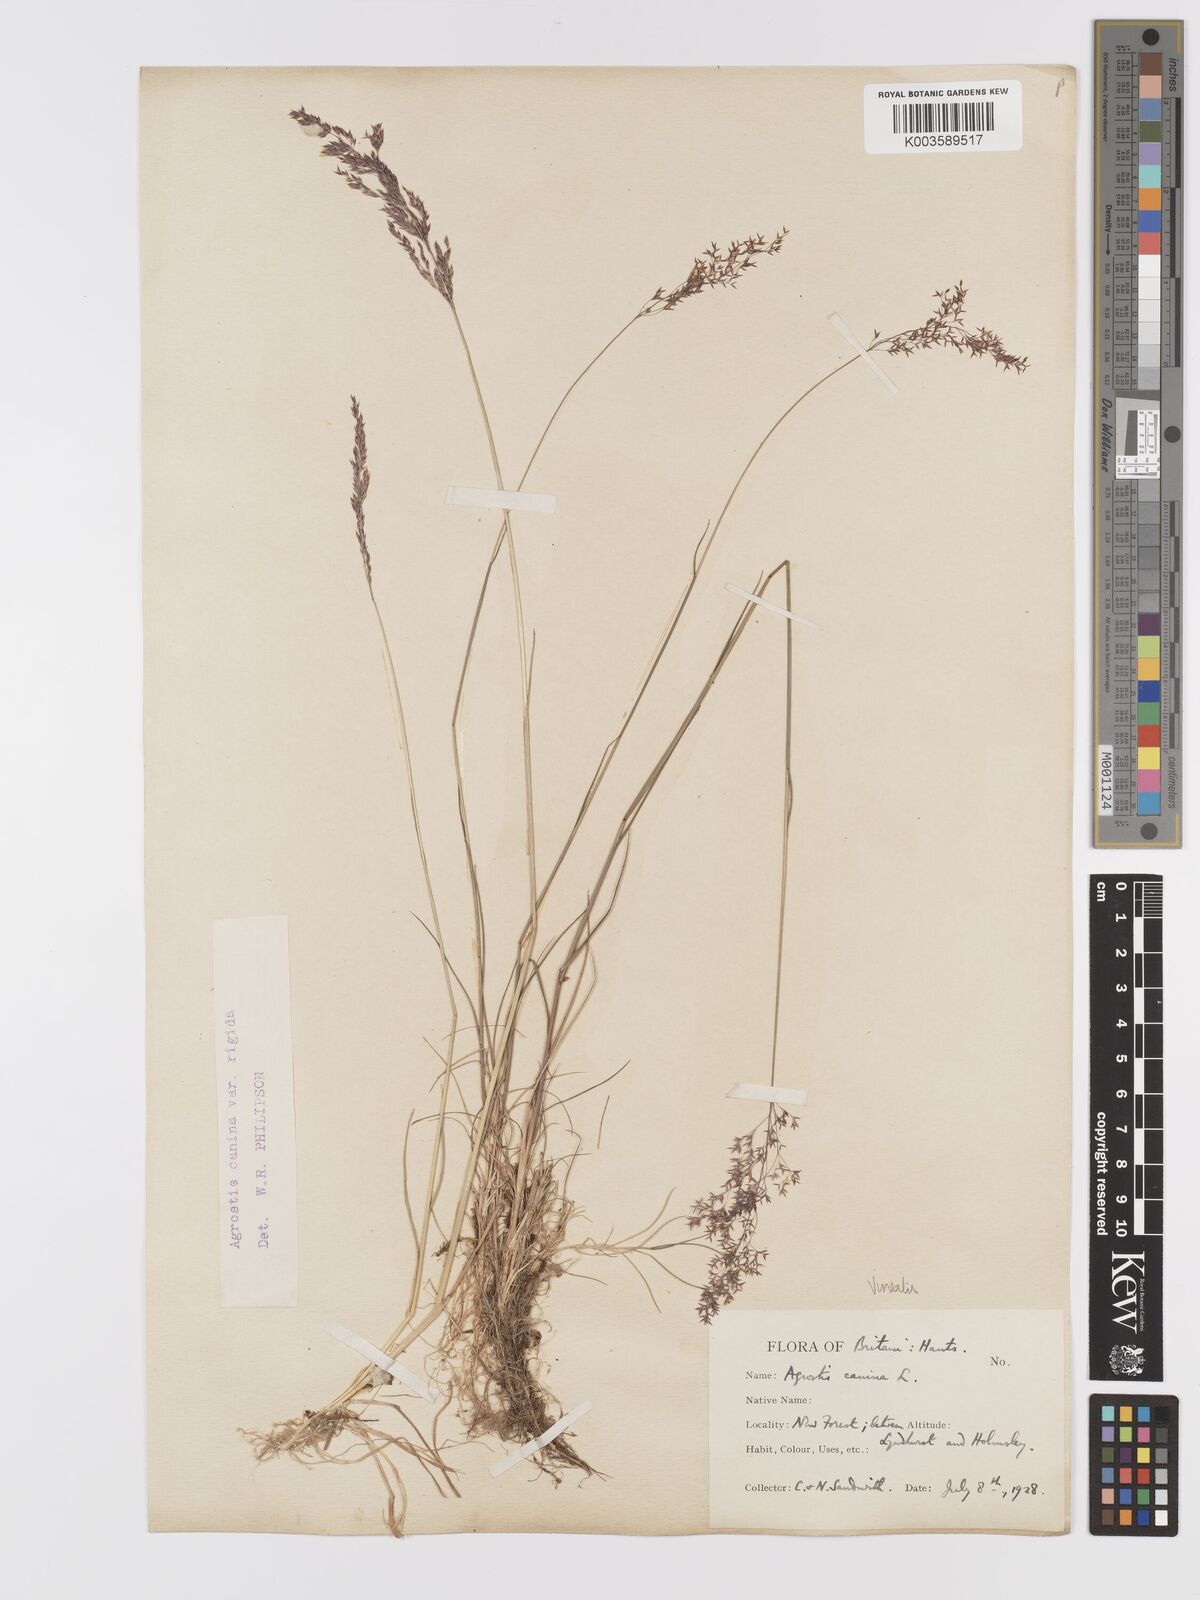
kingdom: Plantae
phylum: Tracheophyta
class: Liliopsida
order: Poales
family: Poaceae
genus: Agrostis
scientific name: Agrostis
